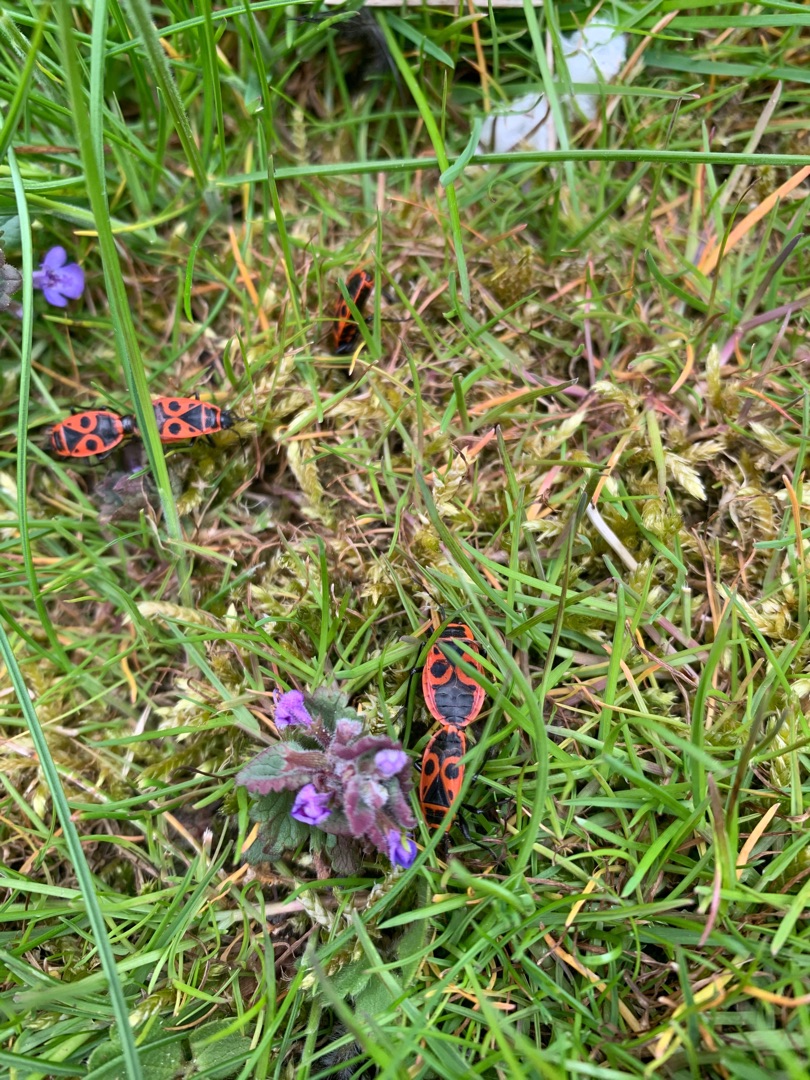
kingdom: Animalia
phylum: Arthropoda
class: Insecta
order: Hemiptera
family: Pyrrhocoridae
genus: Pyrrhocoris
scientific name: Pyrrhocoris apterus
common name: Ildtæge
